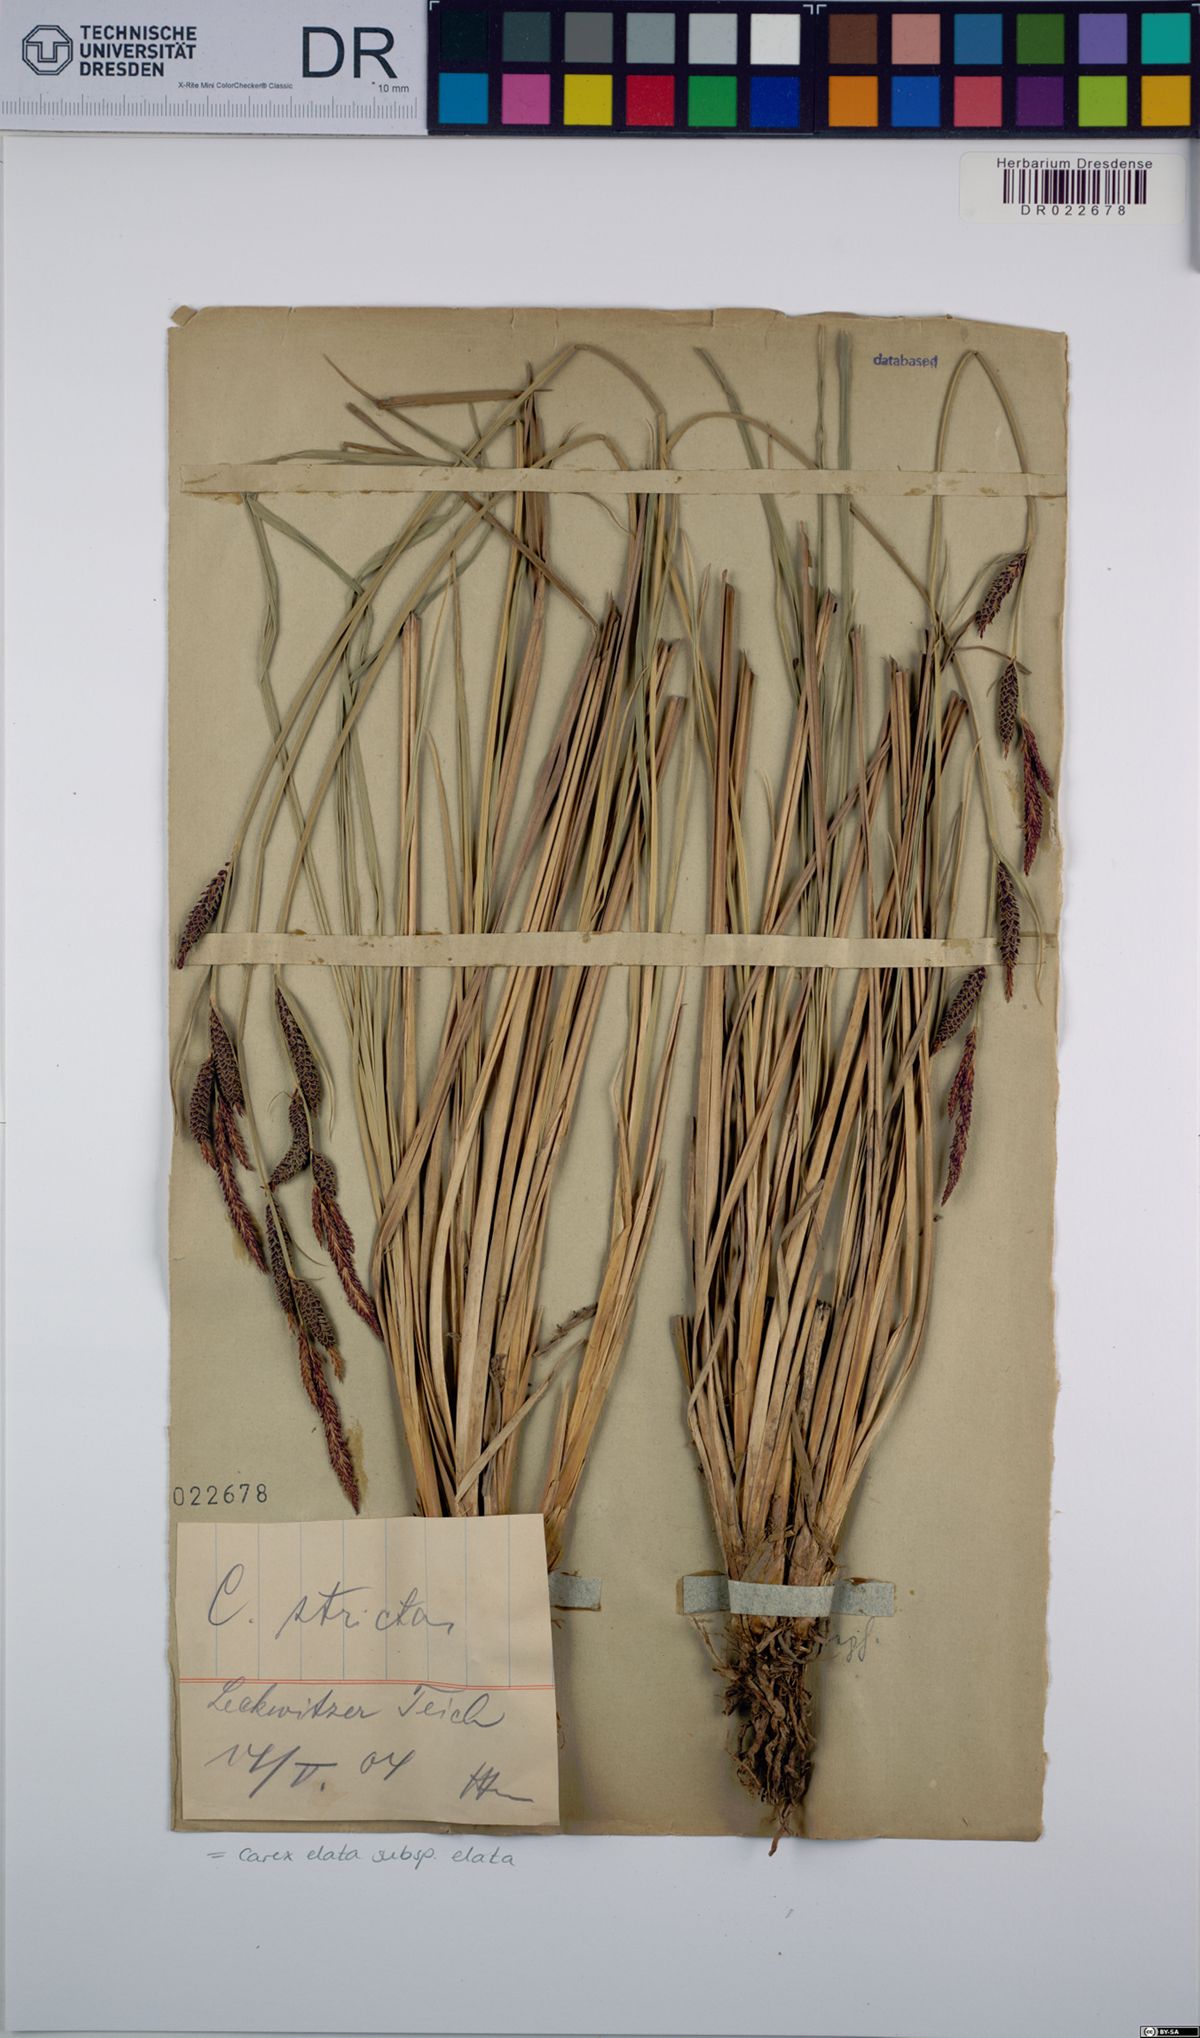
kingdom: Plantae
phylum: Tracheophyta
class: Liliopsida
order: Poales
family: Cyperaceae
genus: Carex
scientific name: Carex elata
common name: Tufted sedge
